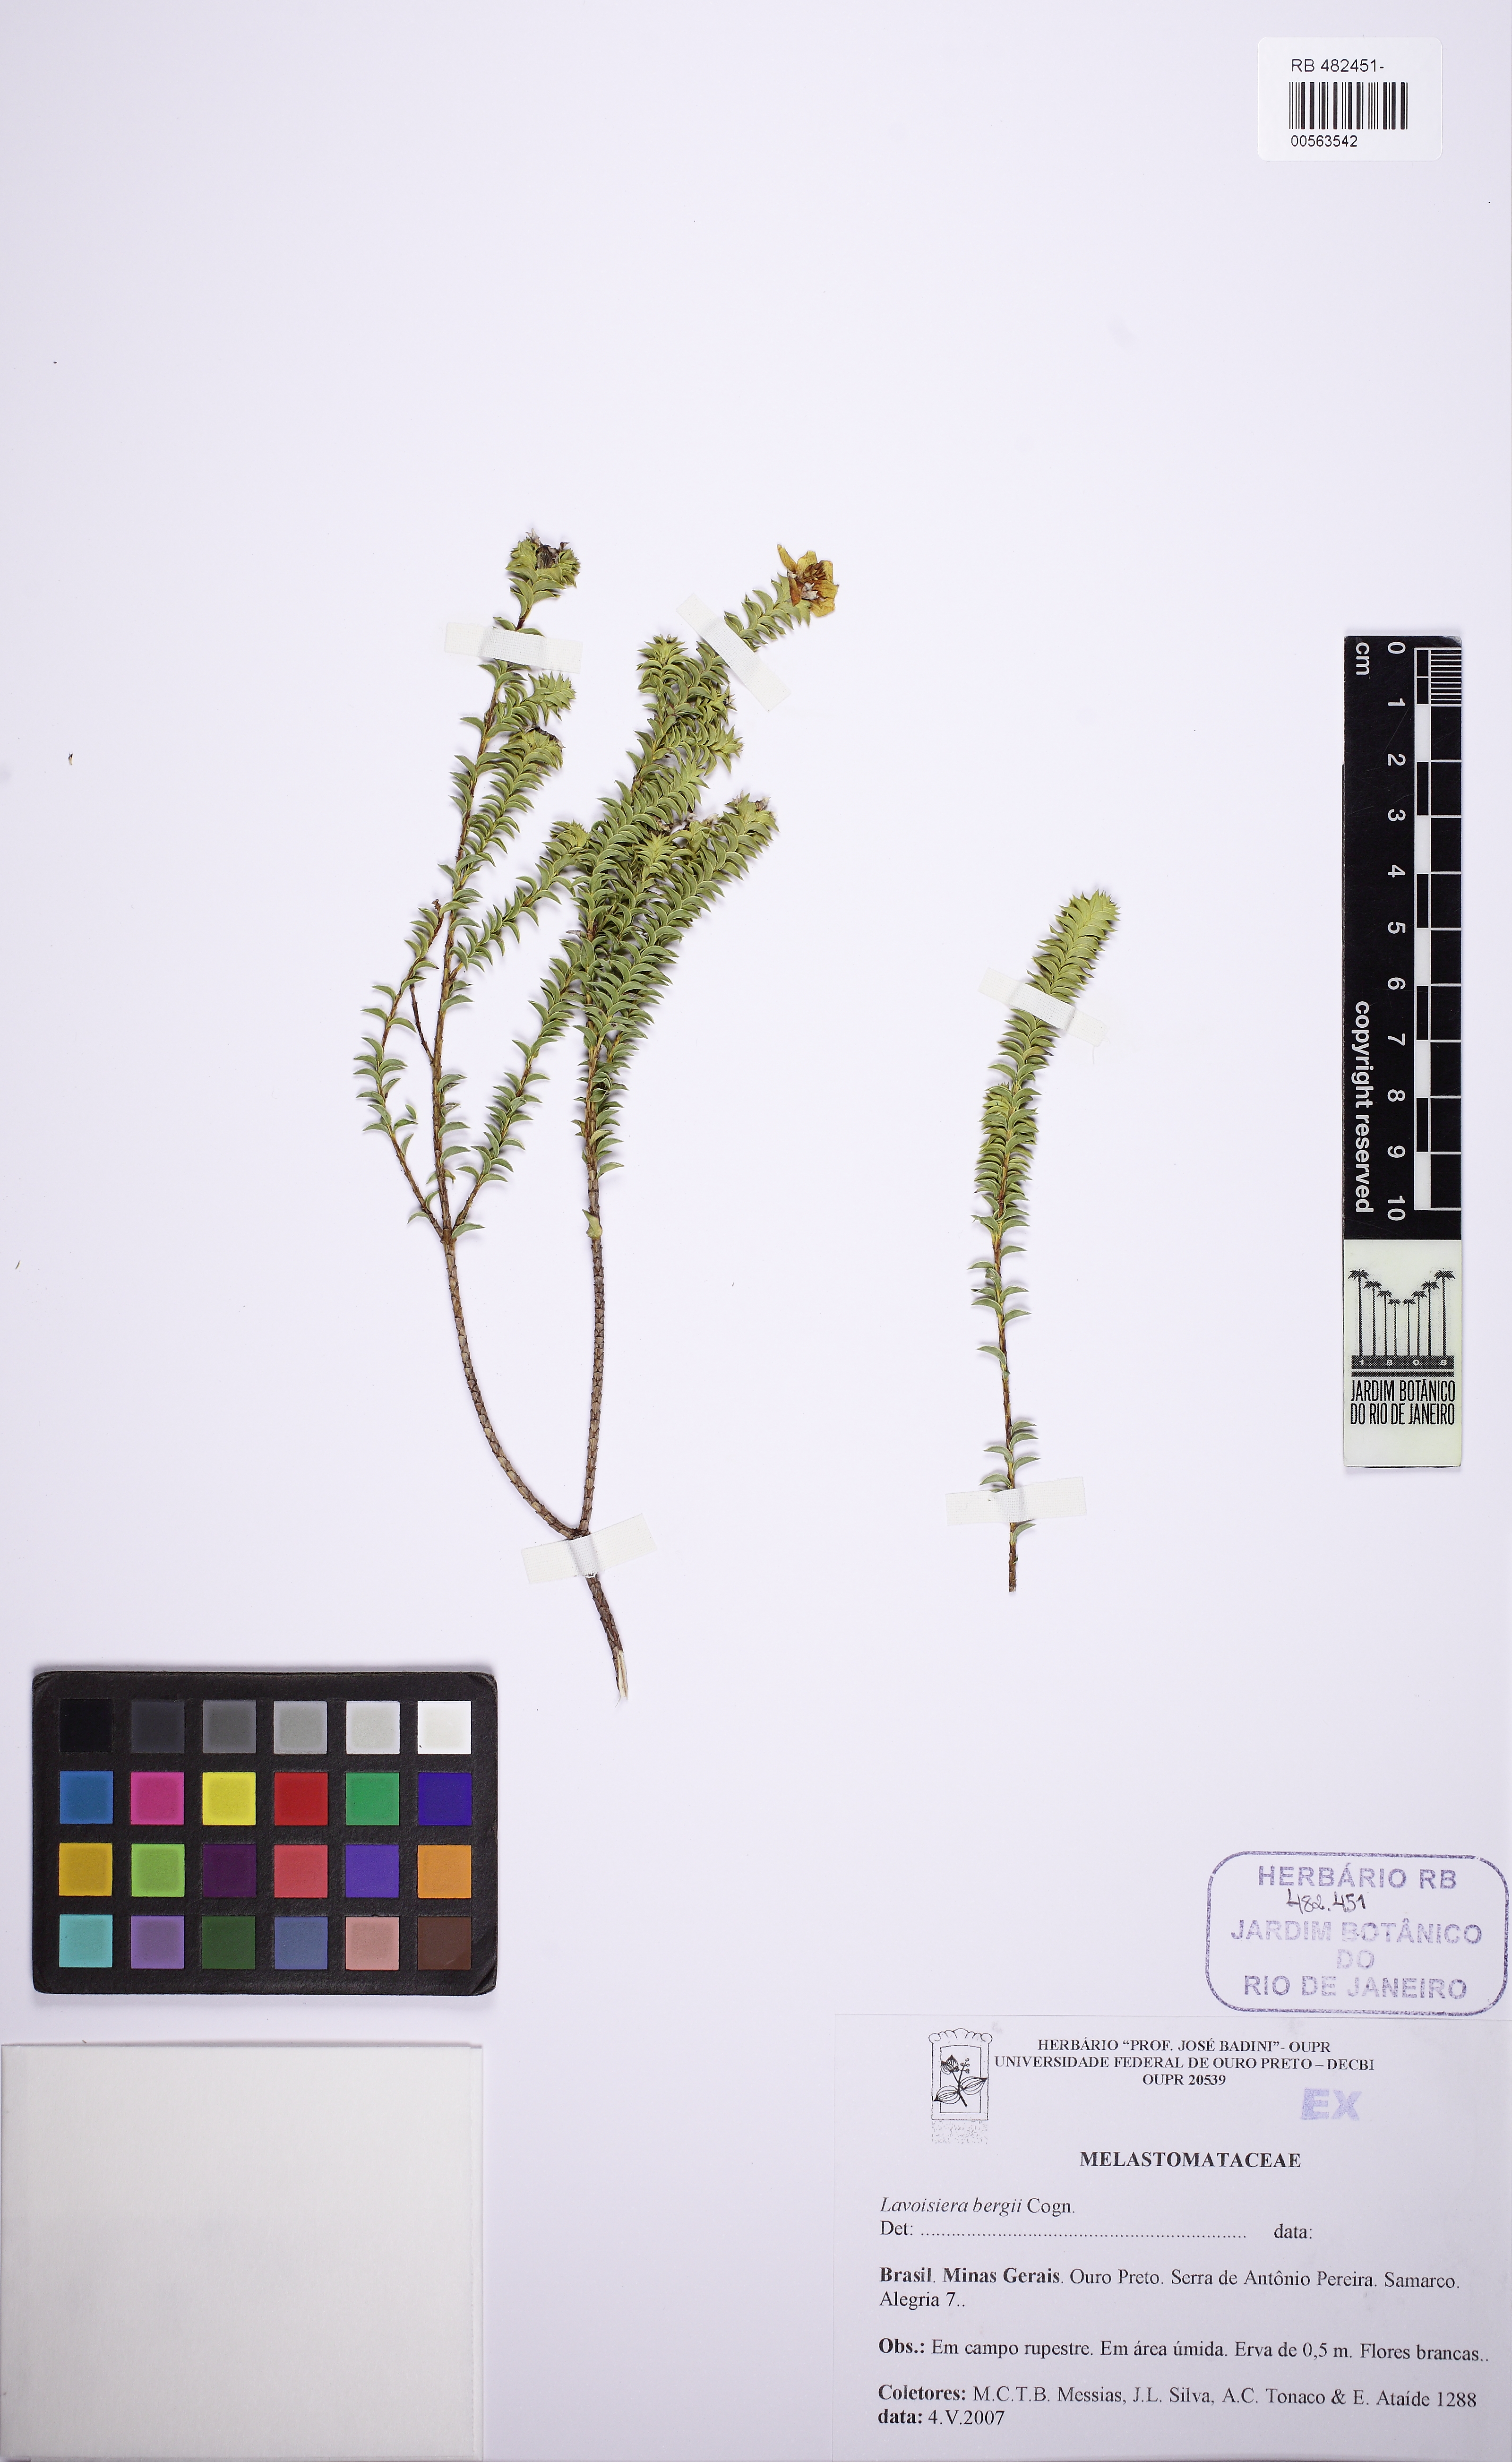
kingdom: Plantae
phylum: Tracheophyta
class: Magnoliopsida
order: Myrtales
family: Melastomataceae
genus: Microlicia
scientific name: Microlicia cataphracta
